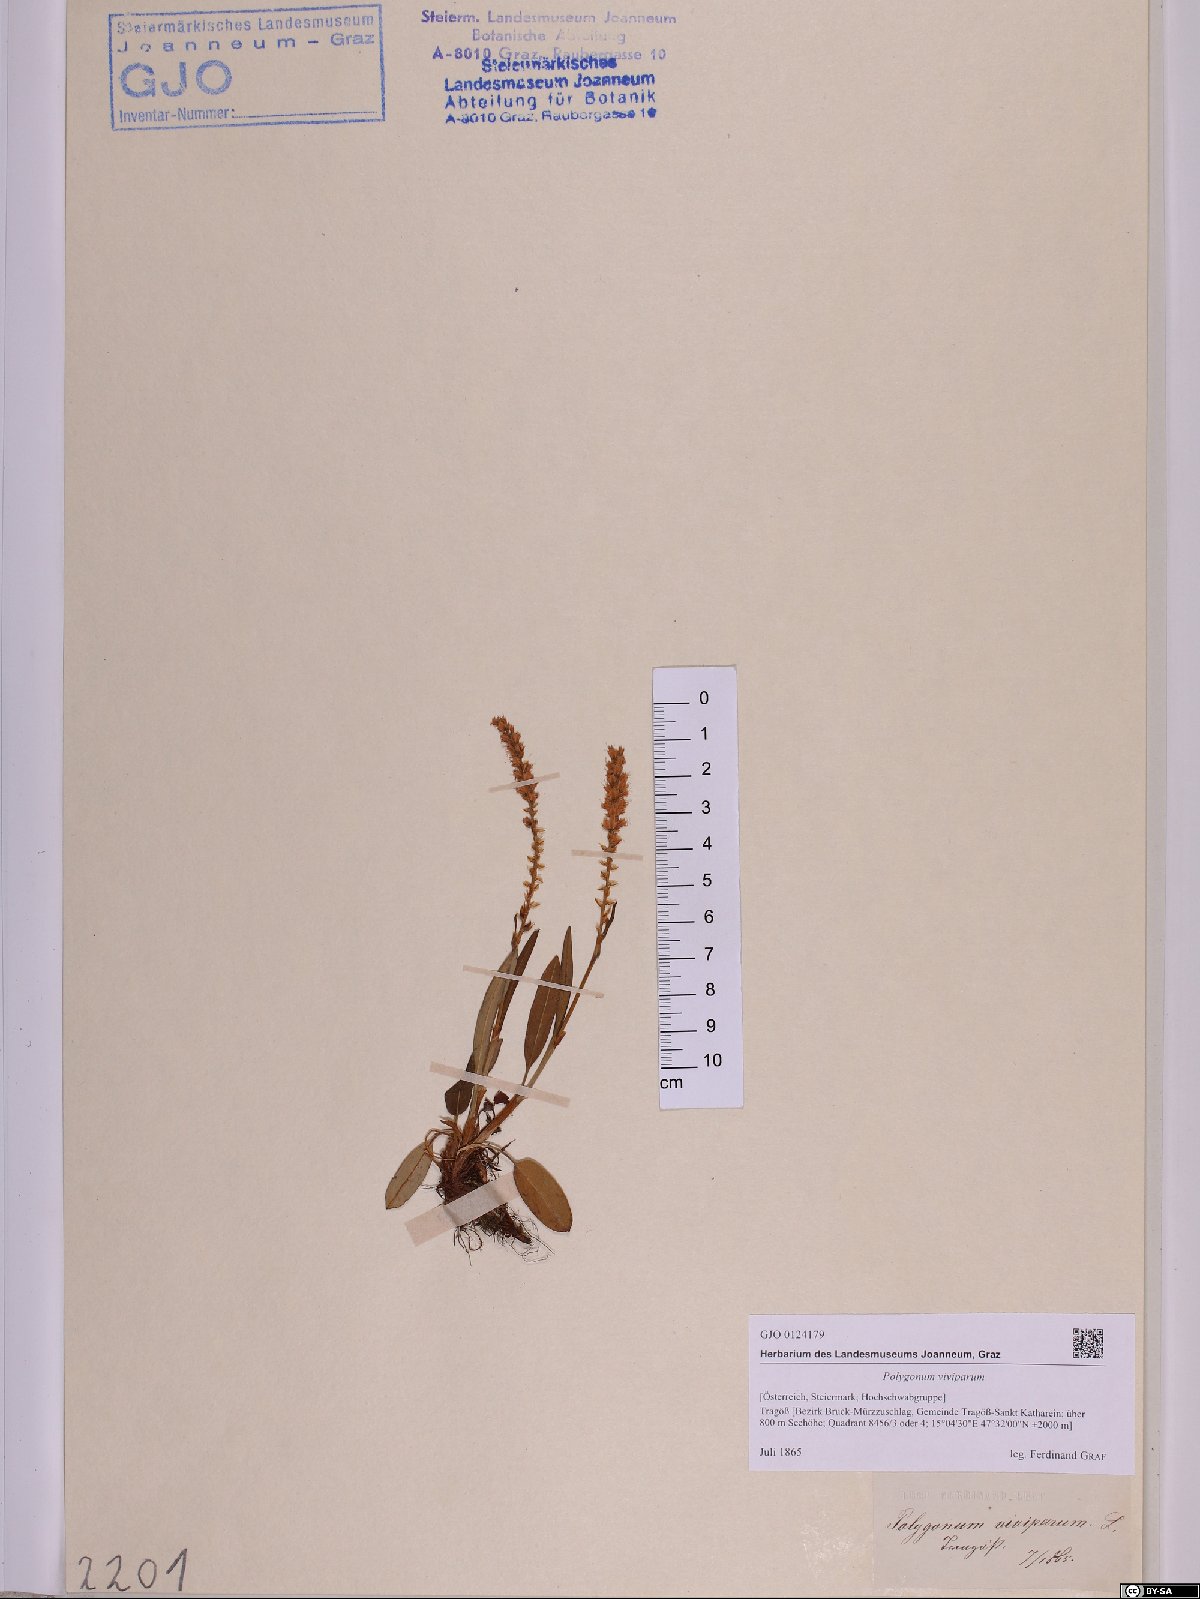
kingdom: Plantae
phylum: Tracheophyta
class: Magnoliopsida
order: Caryophyllales
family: Polygonaceae
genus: Bistorta
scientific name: Bistorta vivipara
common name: Alpine bistort
